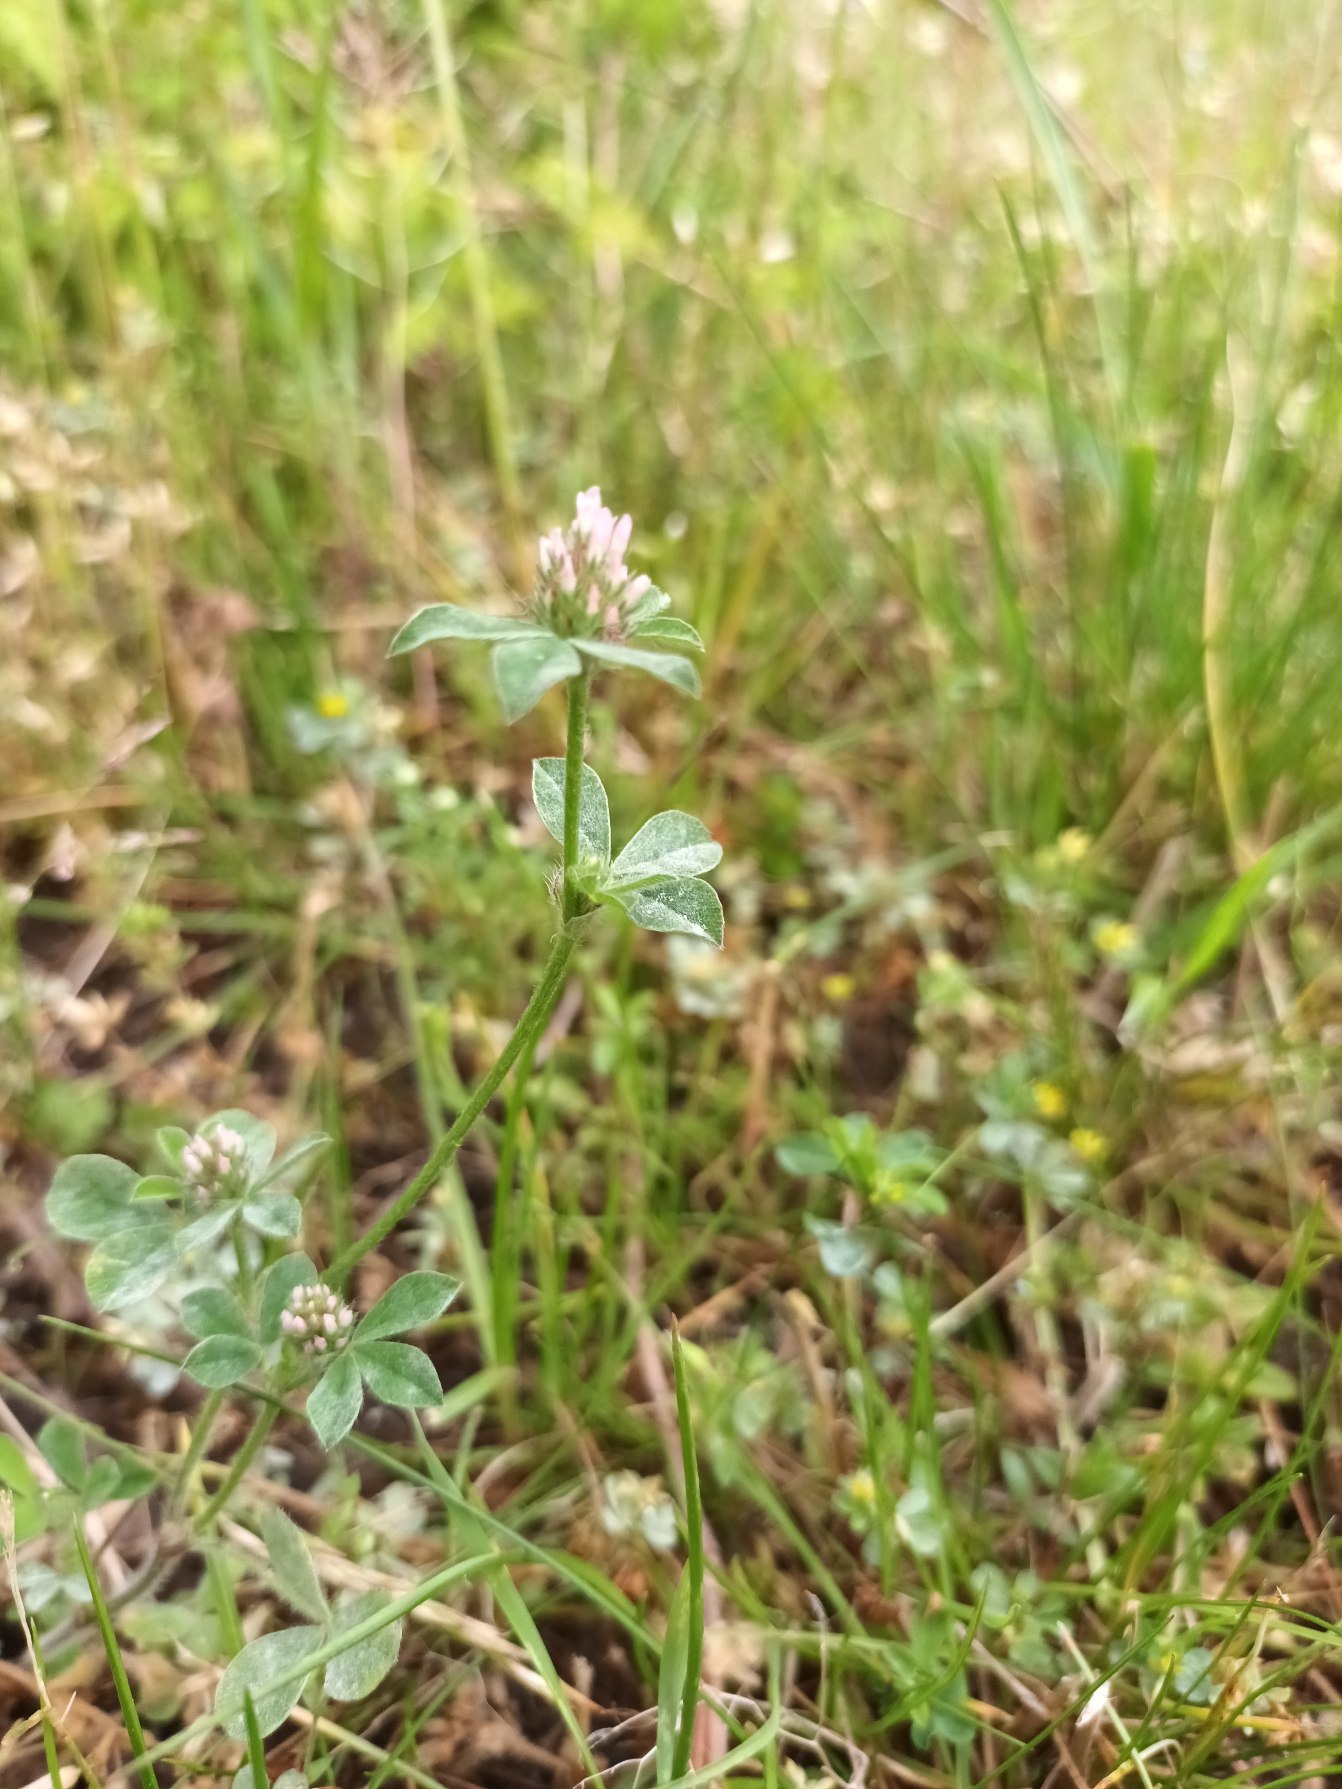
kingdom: Plantae
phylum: Tracheophyta
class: Magnoliopsida
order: Fabales
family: Fabaceae
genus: Trifolium
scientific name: Trifolium striatum
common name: Stribet kløver
